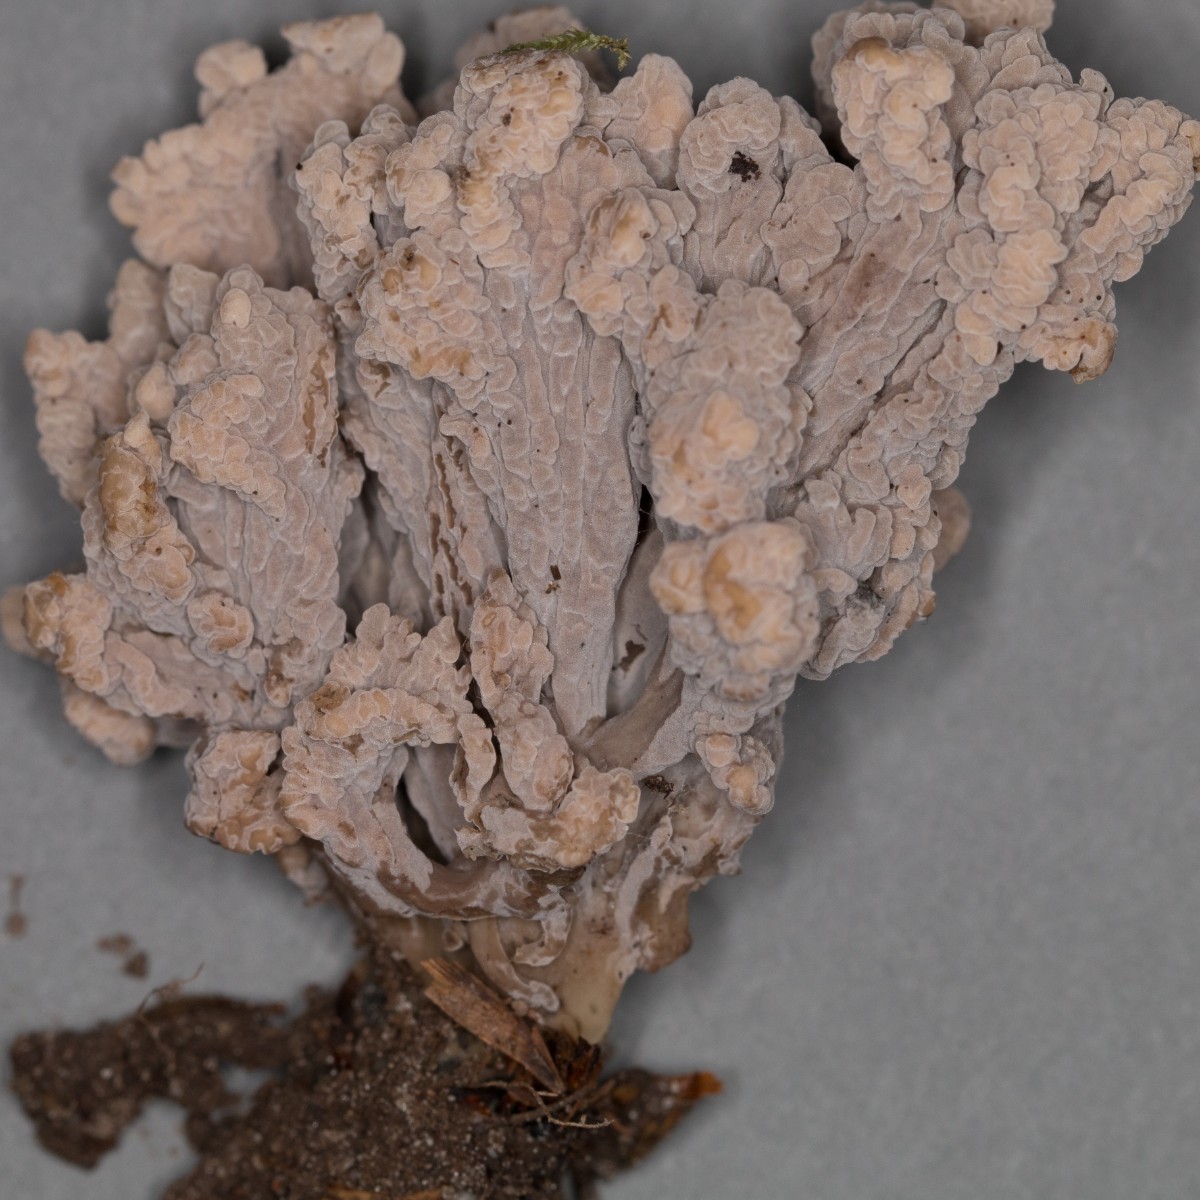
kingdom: Fungi
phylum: Basidiomycota
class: Agaricomycetes
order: Cantharellales
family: Hydnaceae
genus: Clavulina
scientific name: Clavulina
